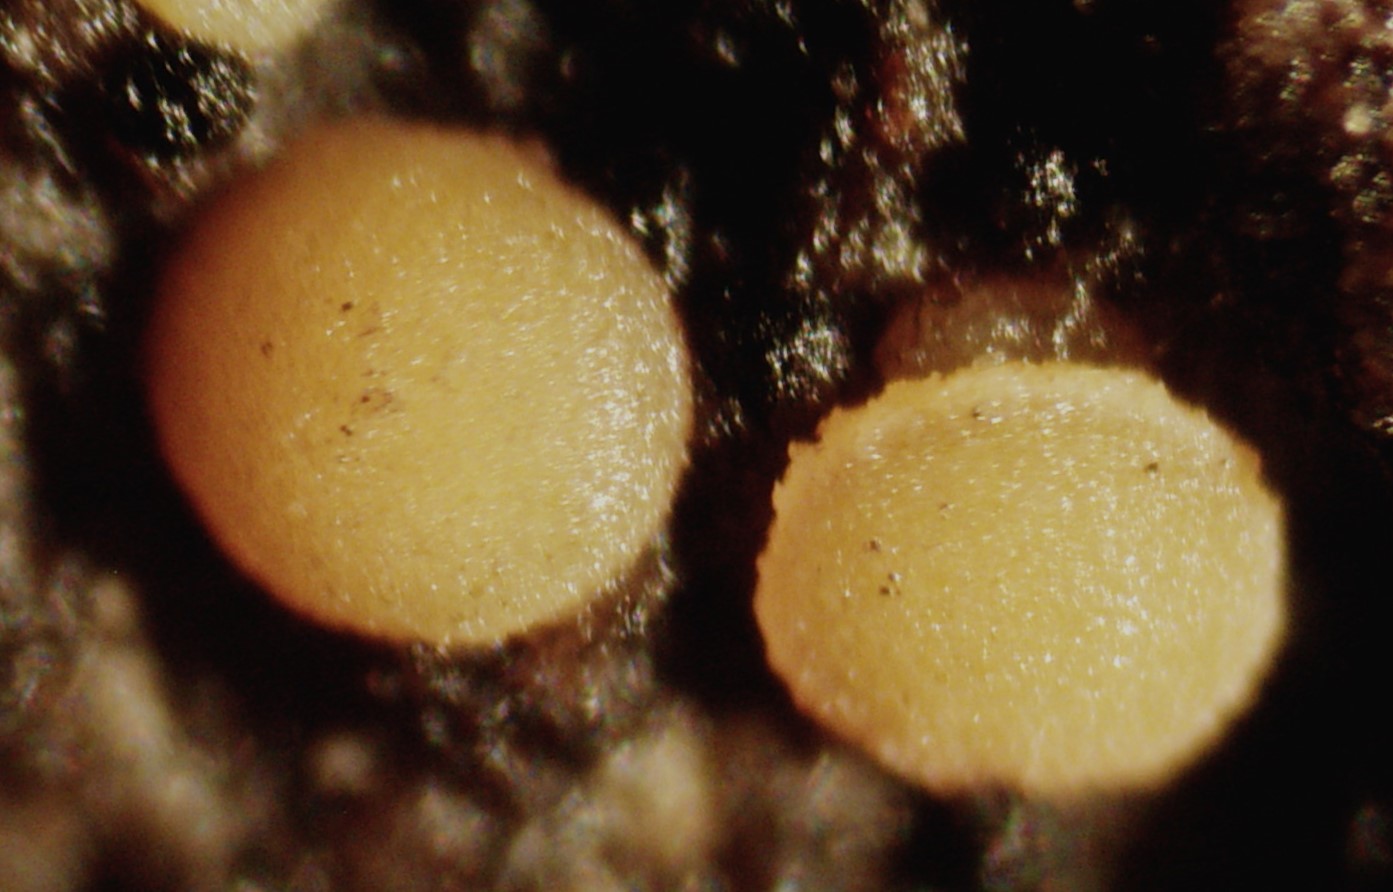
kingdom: Fungi
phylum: Ascomycota
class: Sareomycetes
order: Sareales
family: Sareaceae
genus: Sarea
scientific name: Sarea resinae
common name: orangegul harpiksskive
